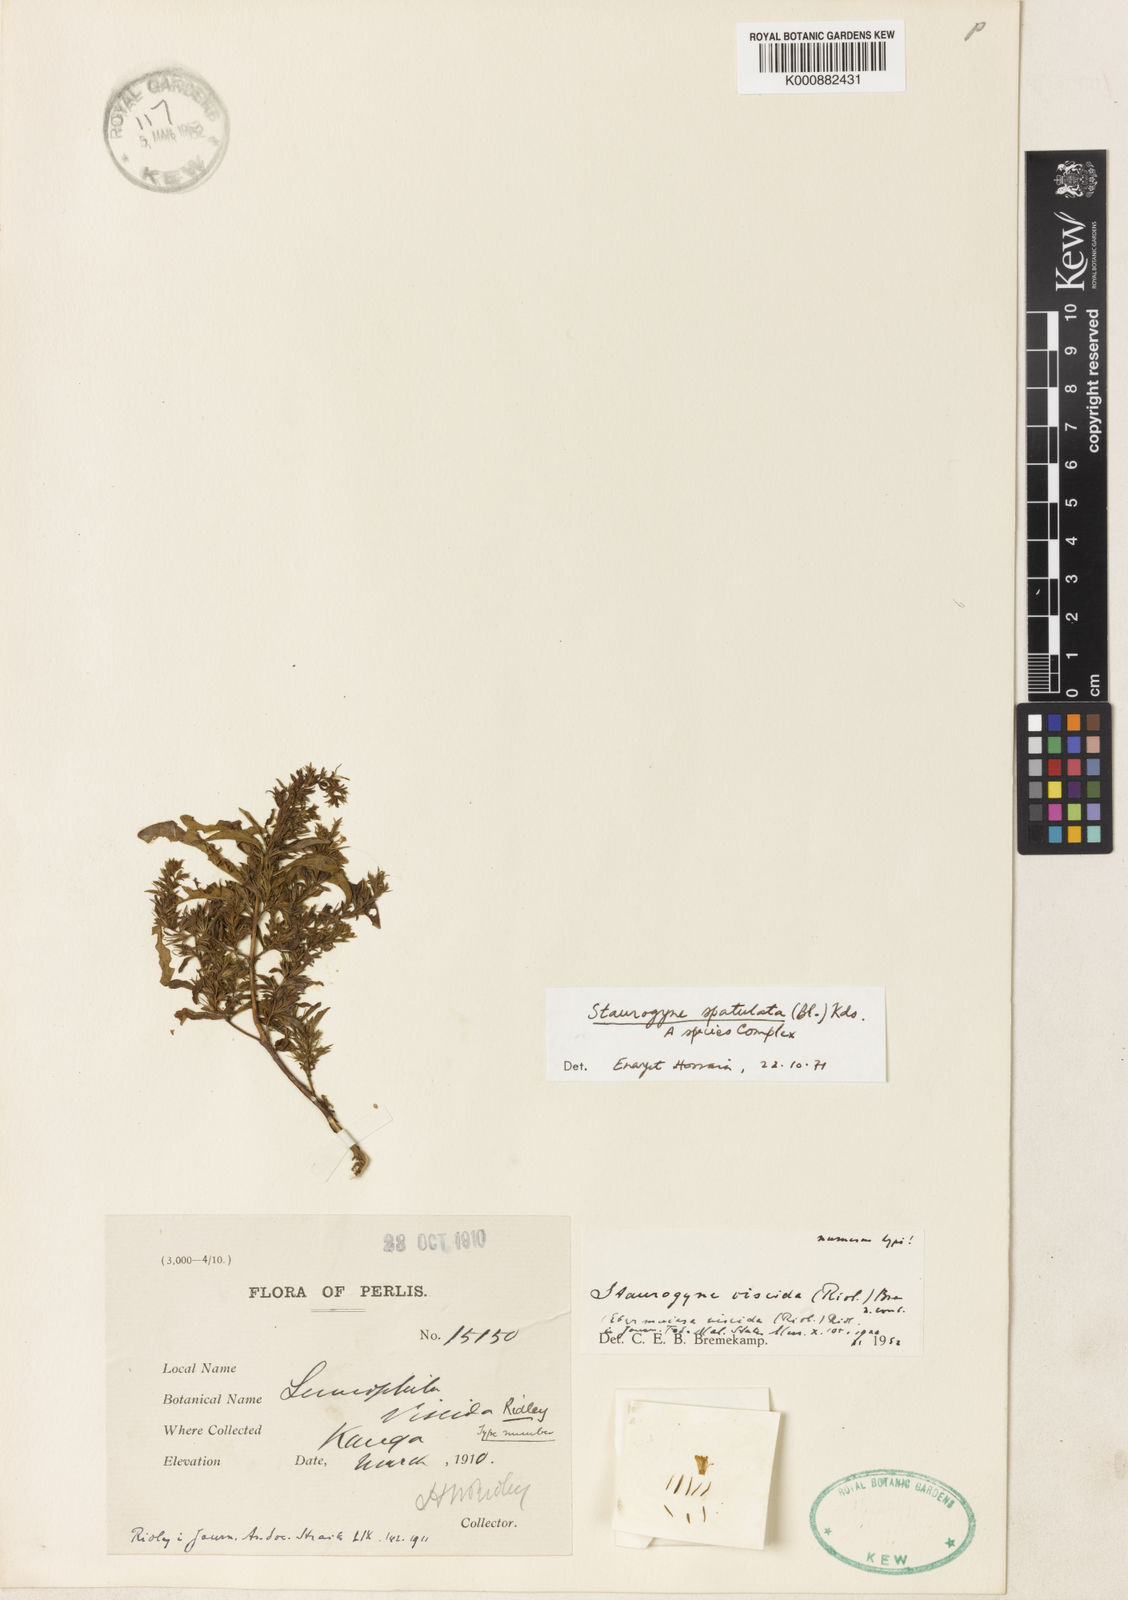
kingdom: Plantae
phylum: Tracheophyta
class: Magnoliopsida
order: Lamiales
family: Acanthaceae
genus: Staurogyne
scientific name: Staurogyne viscida
